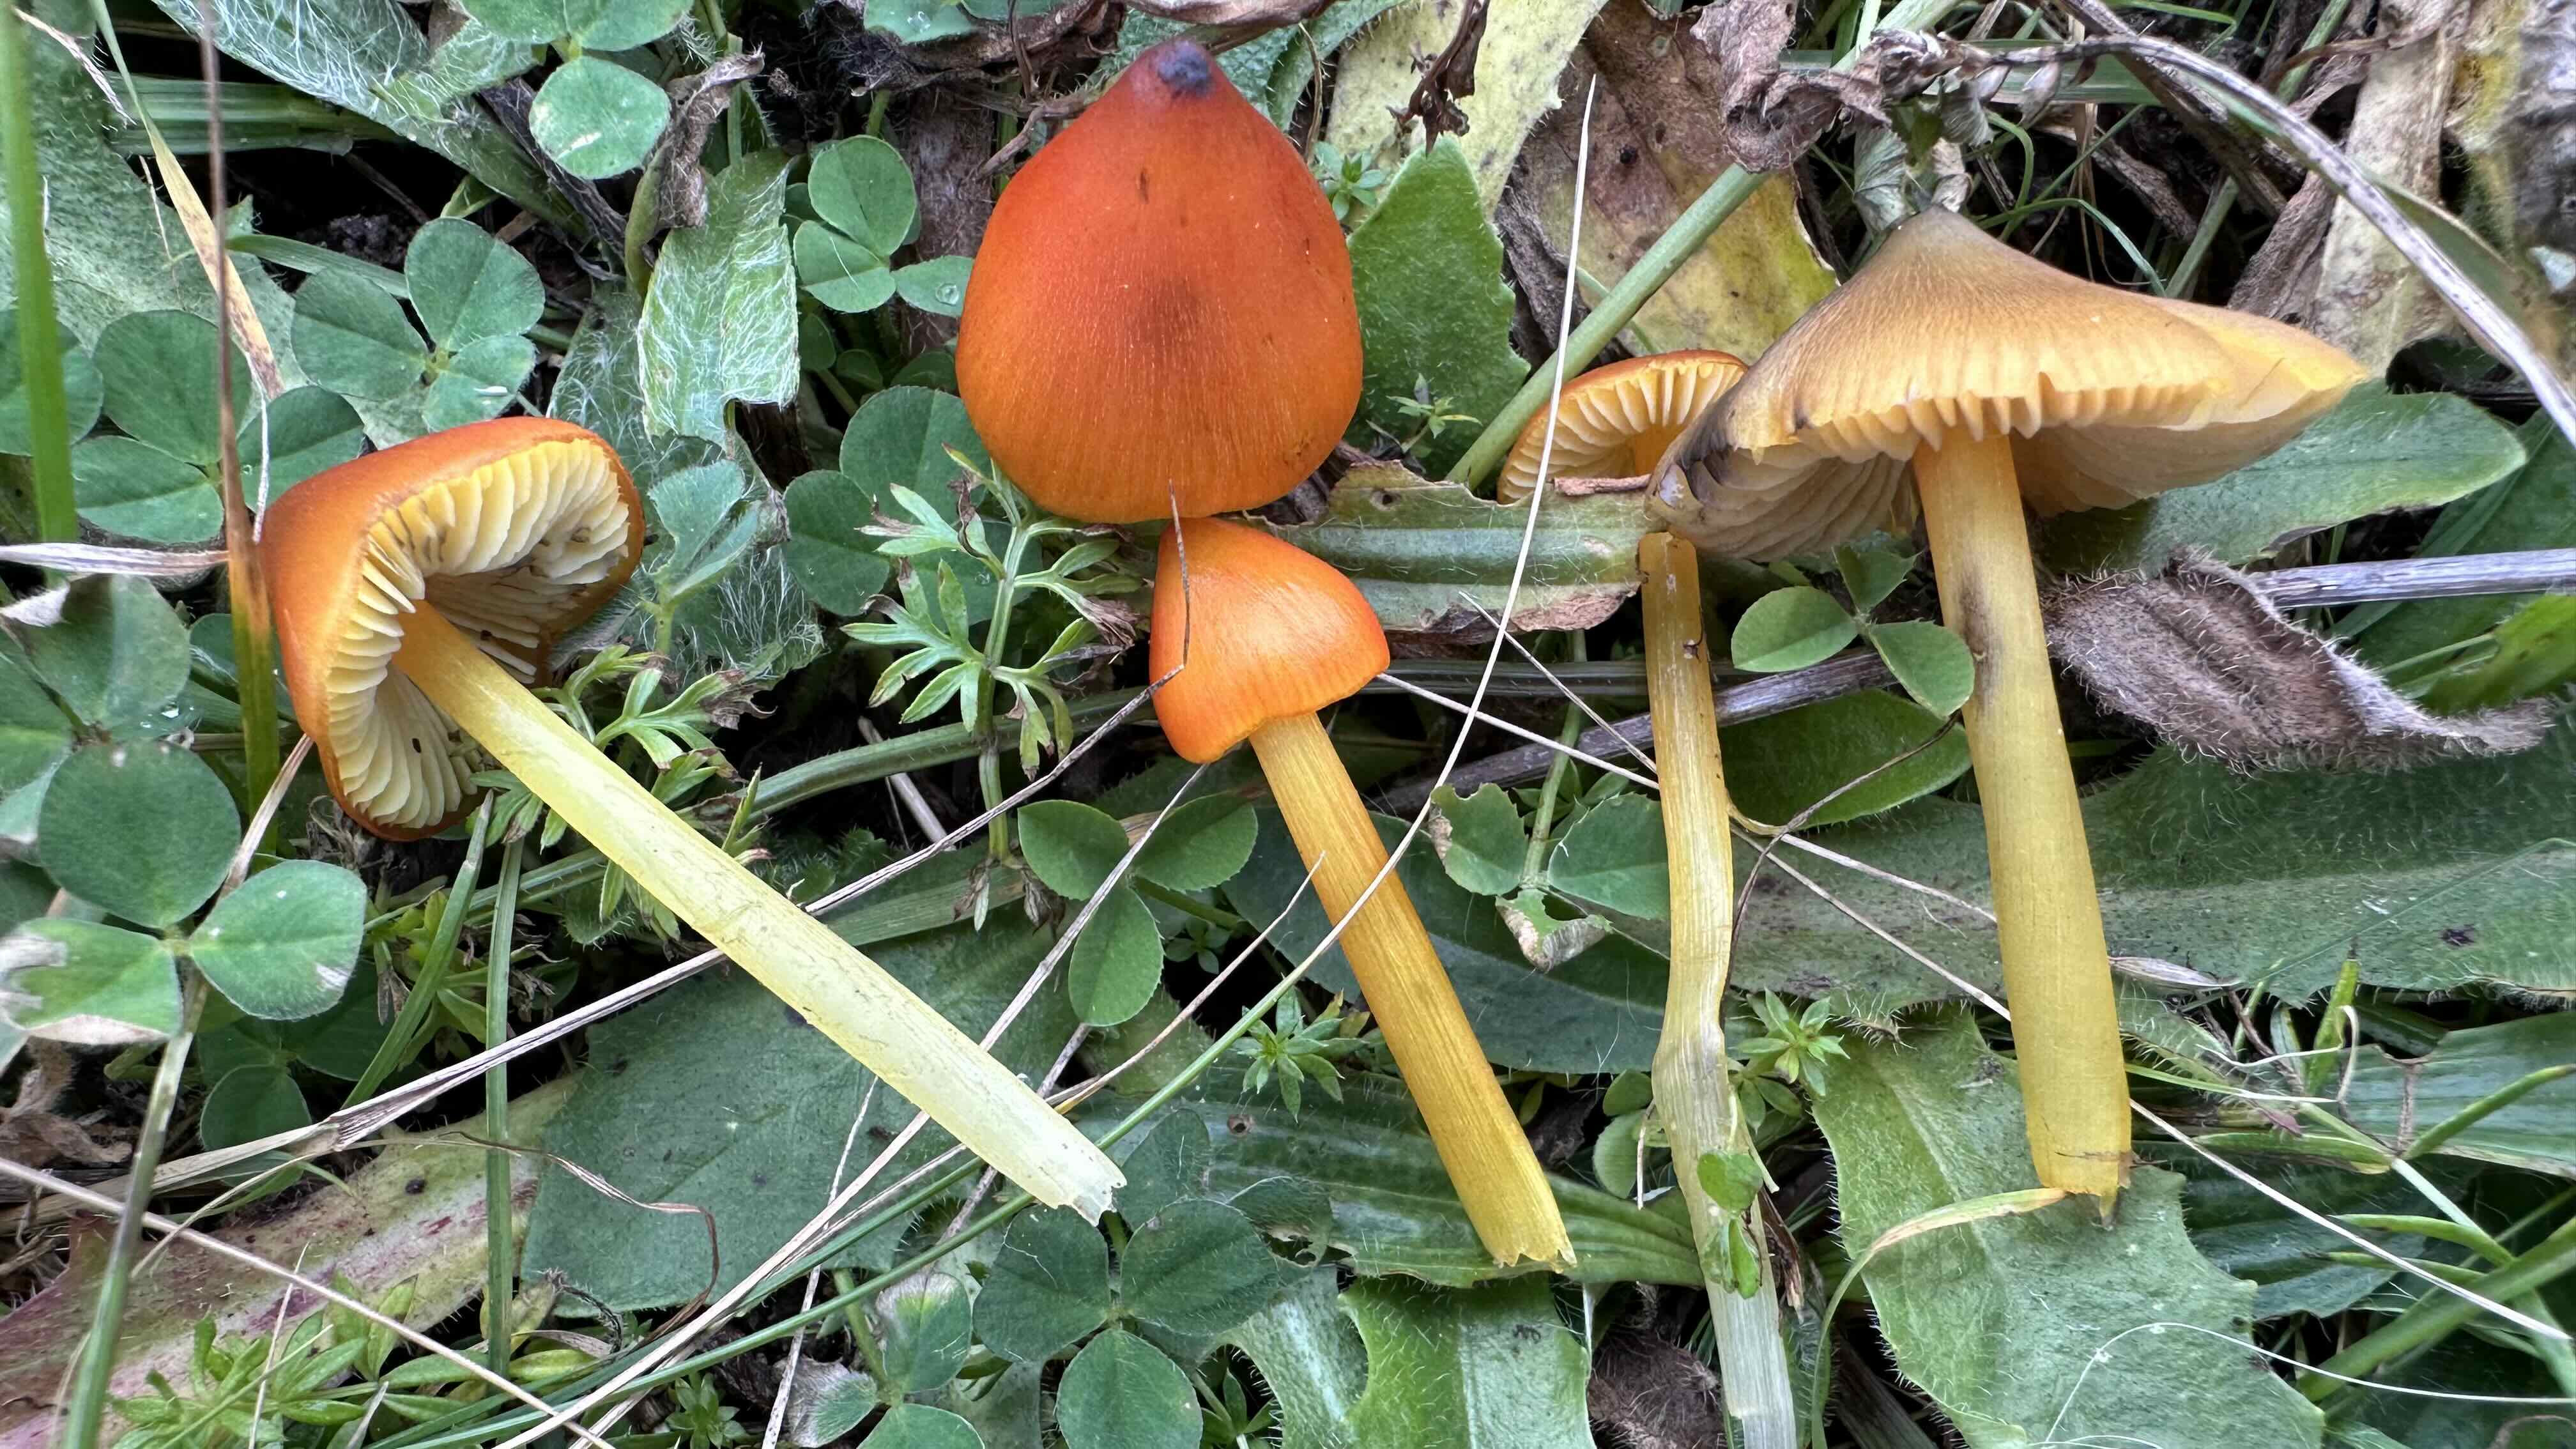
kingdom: Fungi
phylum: Basidiomycota
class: Agaricomycetes
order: Agaricales
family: Hygrophoraceae
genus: Hygrocybe
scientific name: Hygrocybe conica
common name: kegle-vokshat
